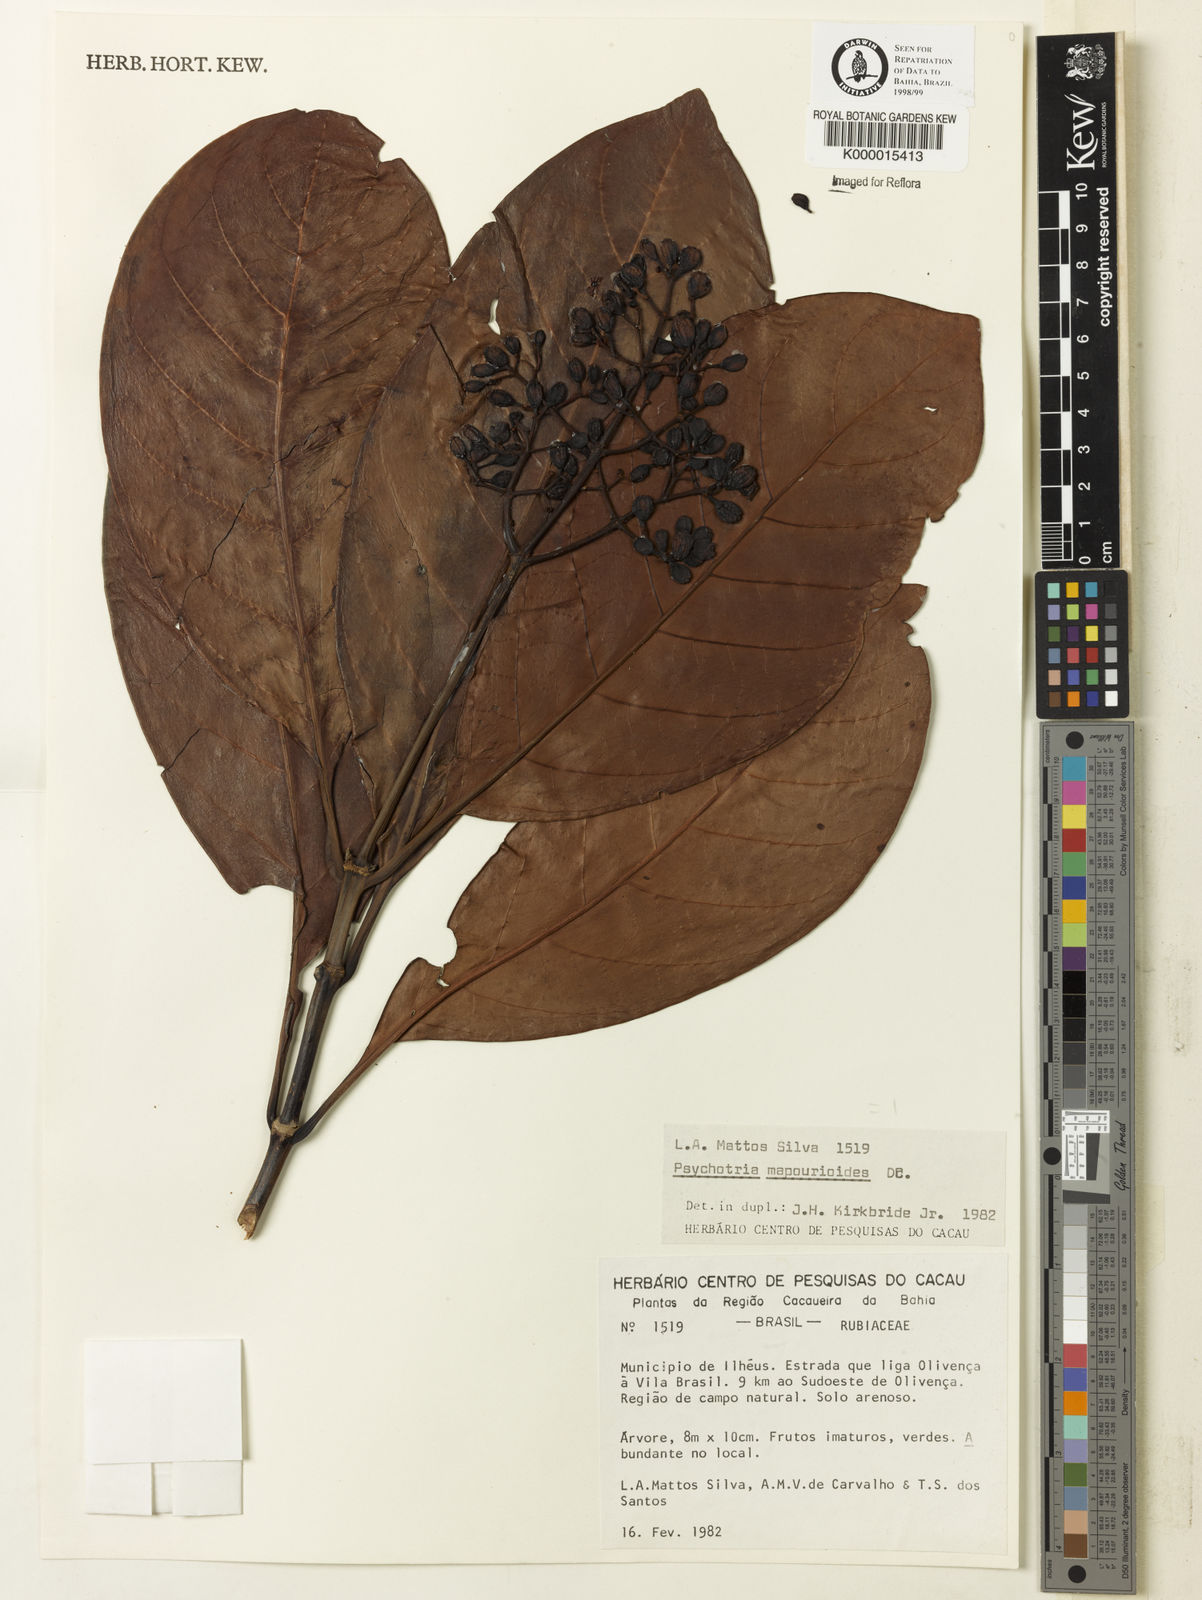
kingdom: Plantae
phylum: Tracheophyta
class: Magnoliopsida
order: Gentianales
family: Rubiaceae
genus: Psychotria
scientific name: Psychotria carthagenensis
